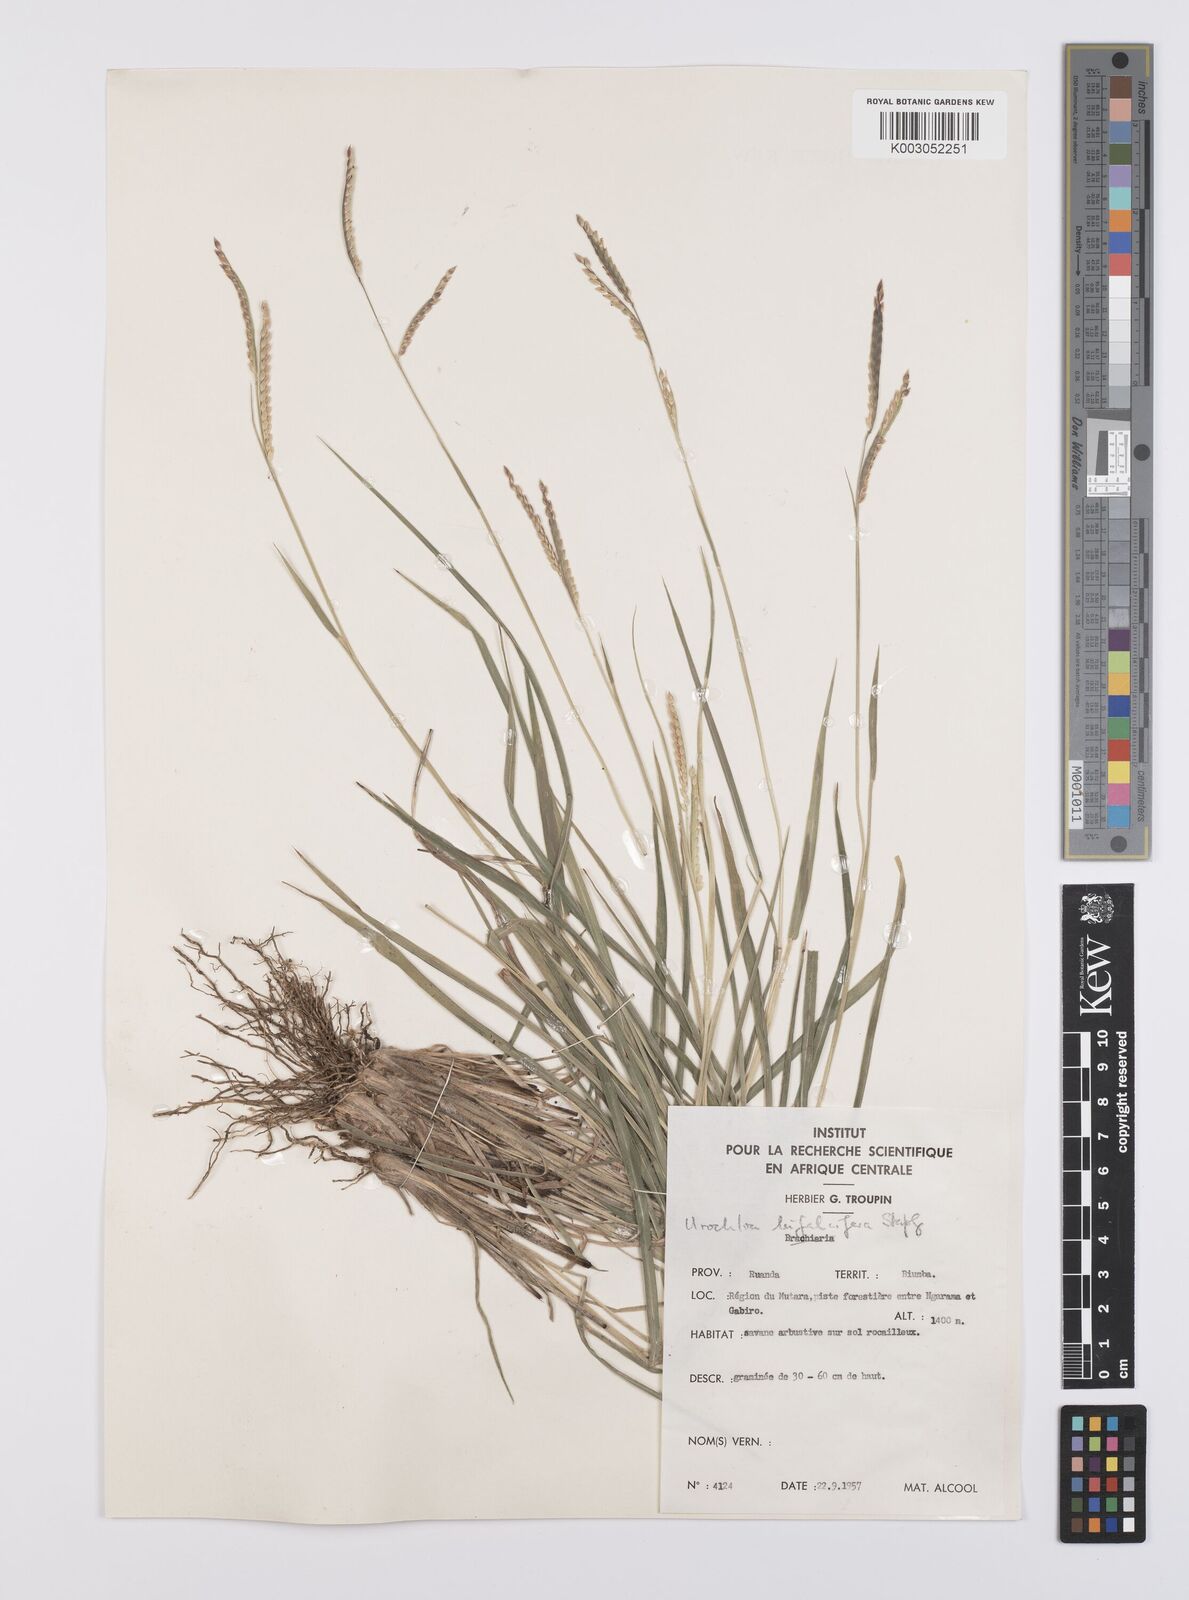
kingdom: Plantae
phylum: Tracheophyta
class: Liliopsida
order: Poales
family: Poaceae
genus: Urochloa
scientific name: Urochloa platynota
